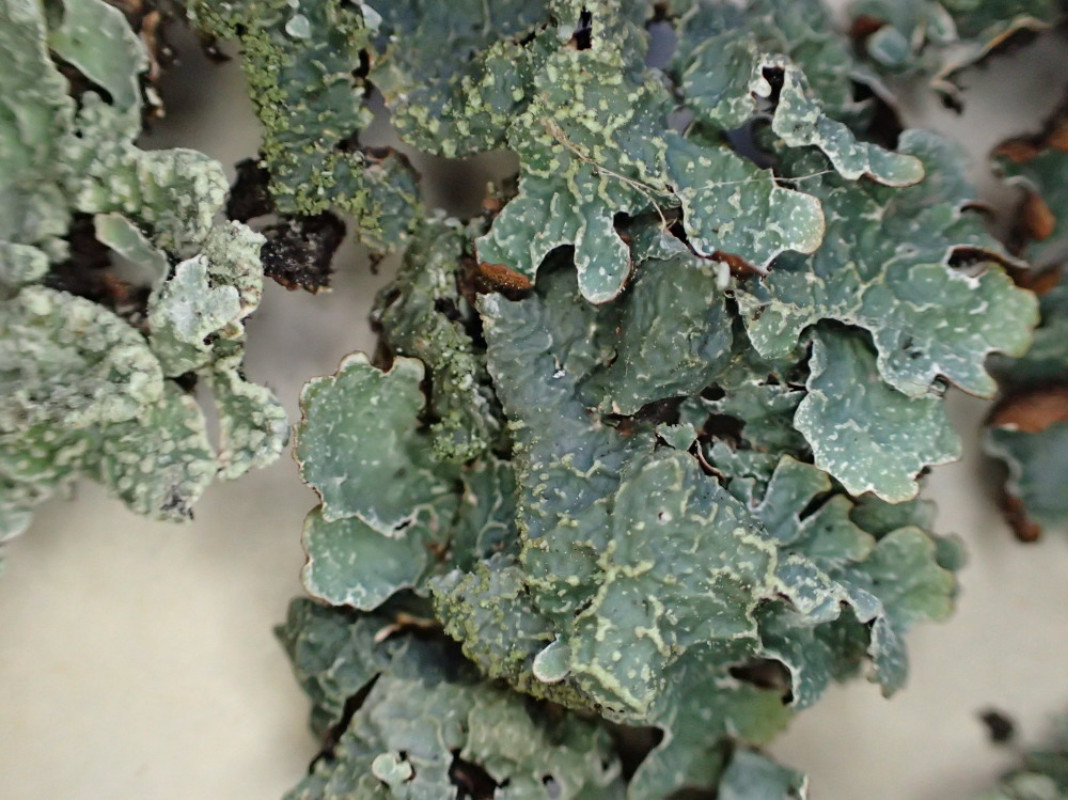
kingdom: Fungi
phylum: Ascomycota
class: Lecanoromycetes
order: Lecanorales
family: Parmeliaceae
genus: Parmelia
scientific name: Parmelia sulcata
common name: rynket skållav
